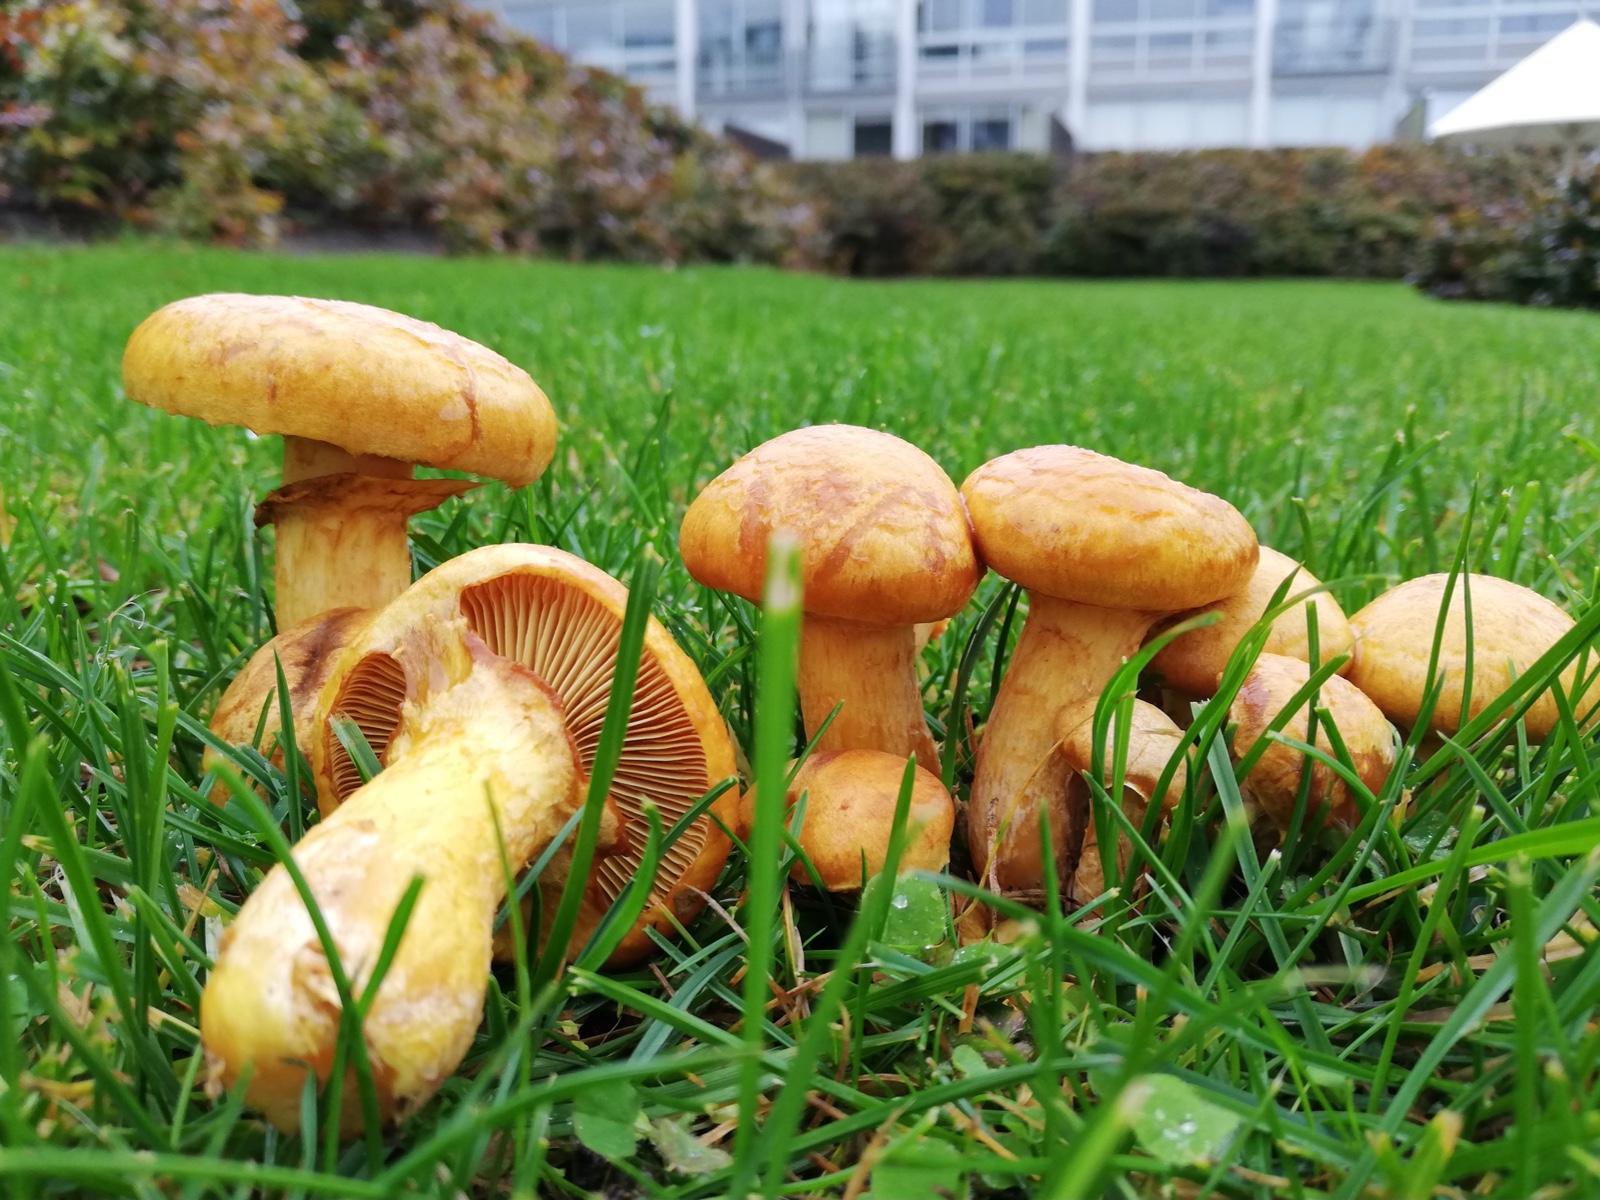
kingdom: Fungi
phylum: Basidiomycota
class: Agaricomycetes
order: Agaricales
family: Hymenogastraceae
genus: Gymnopilus
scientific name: Gymnopilus spectabilis
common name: fibret flammehat
